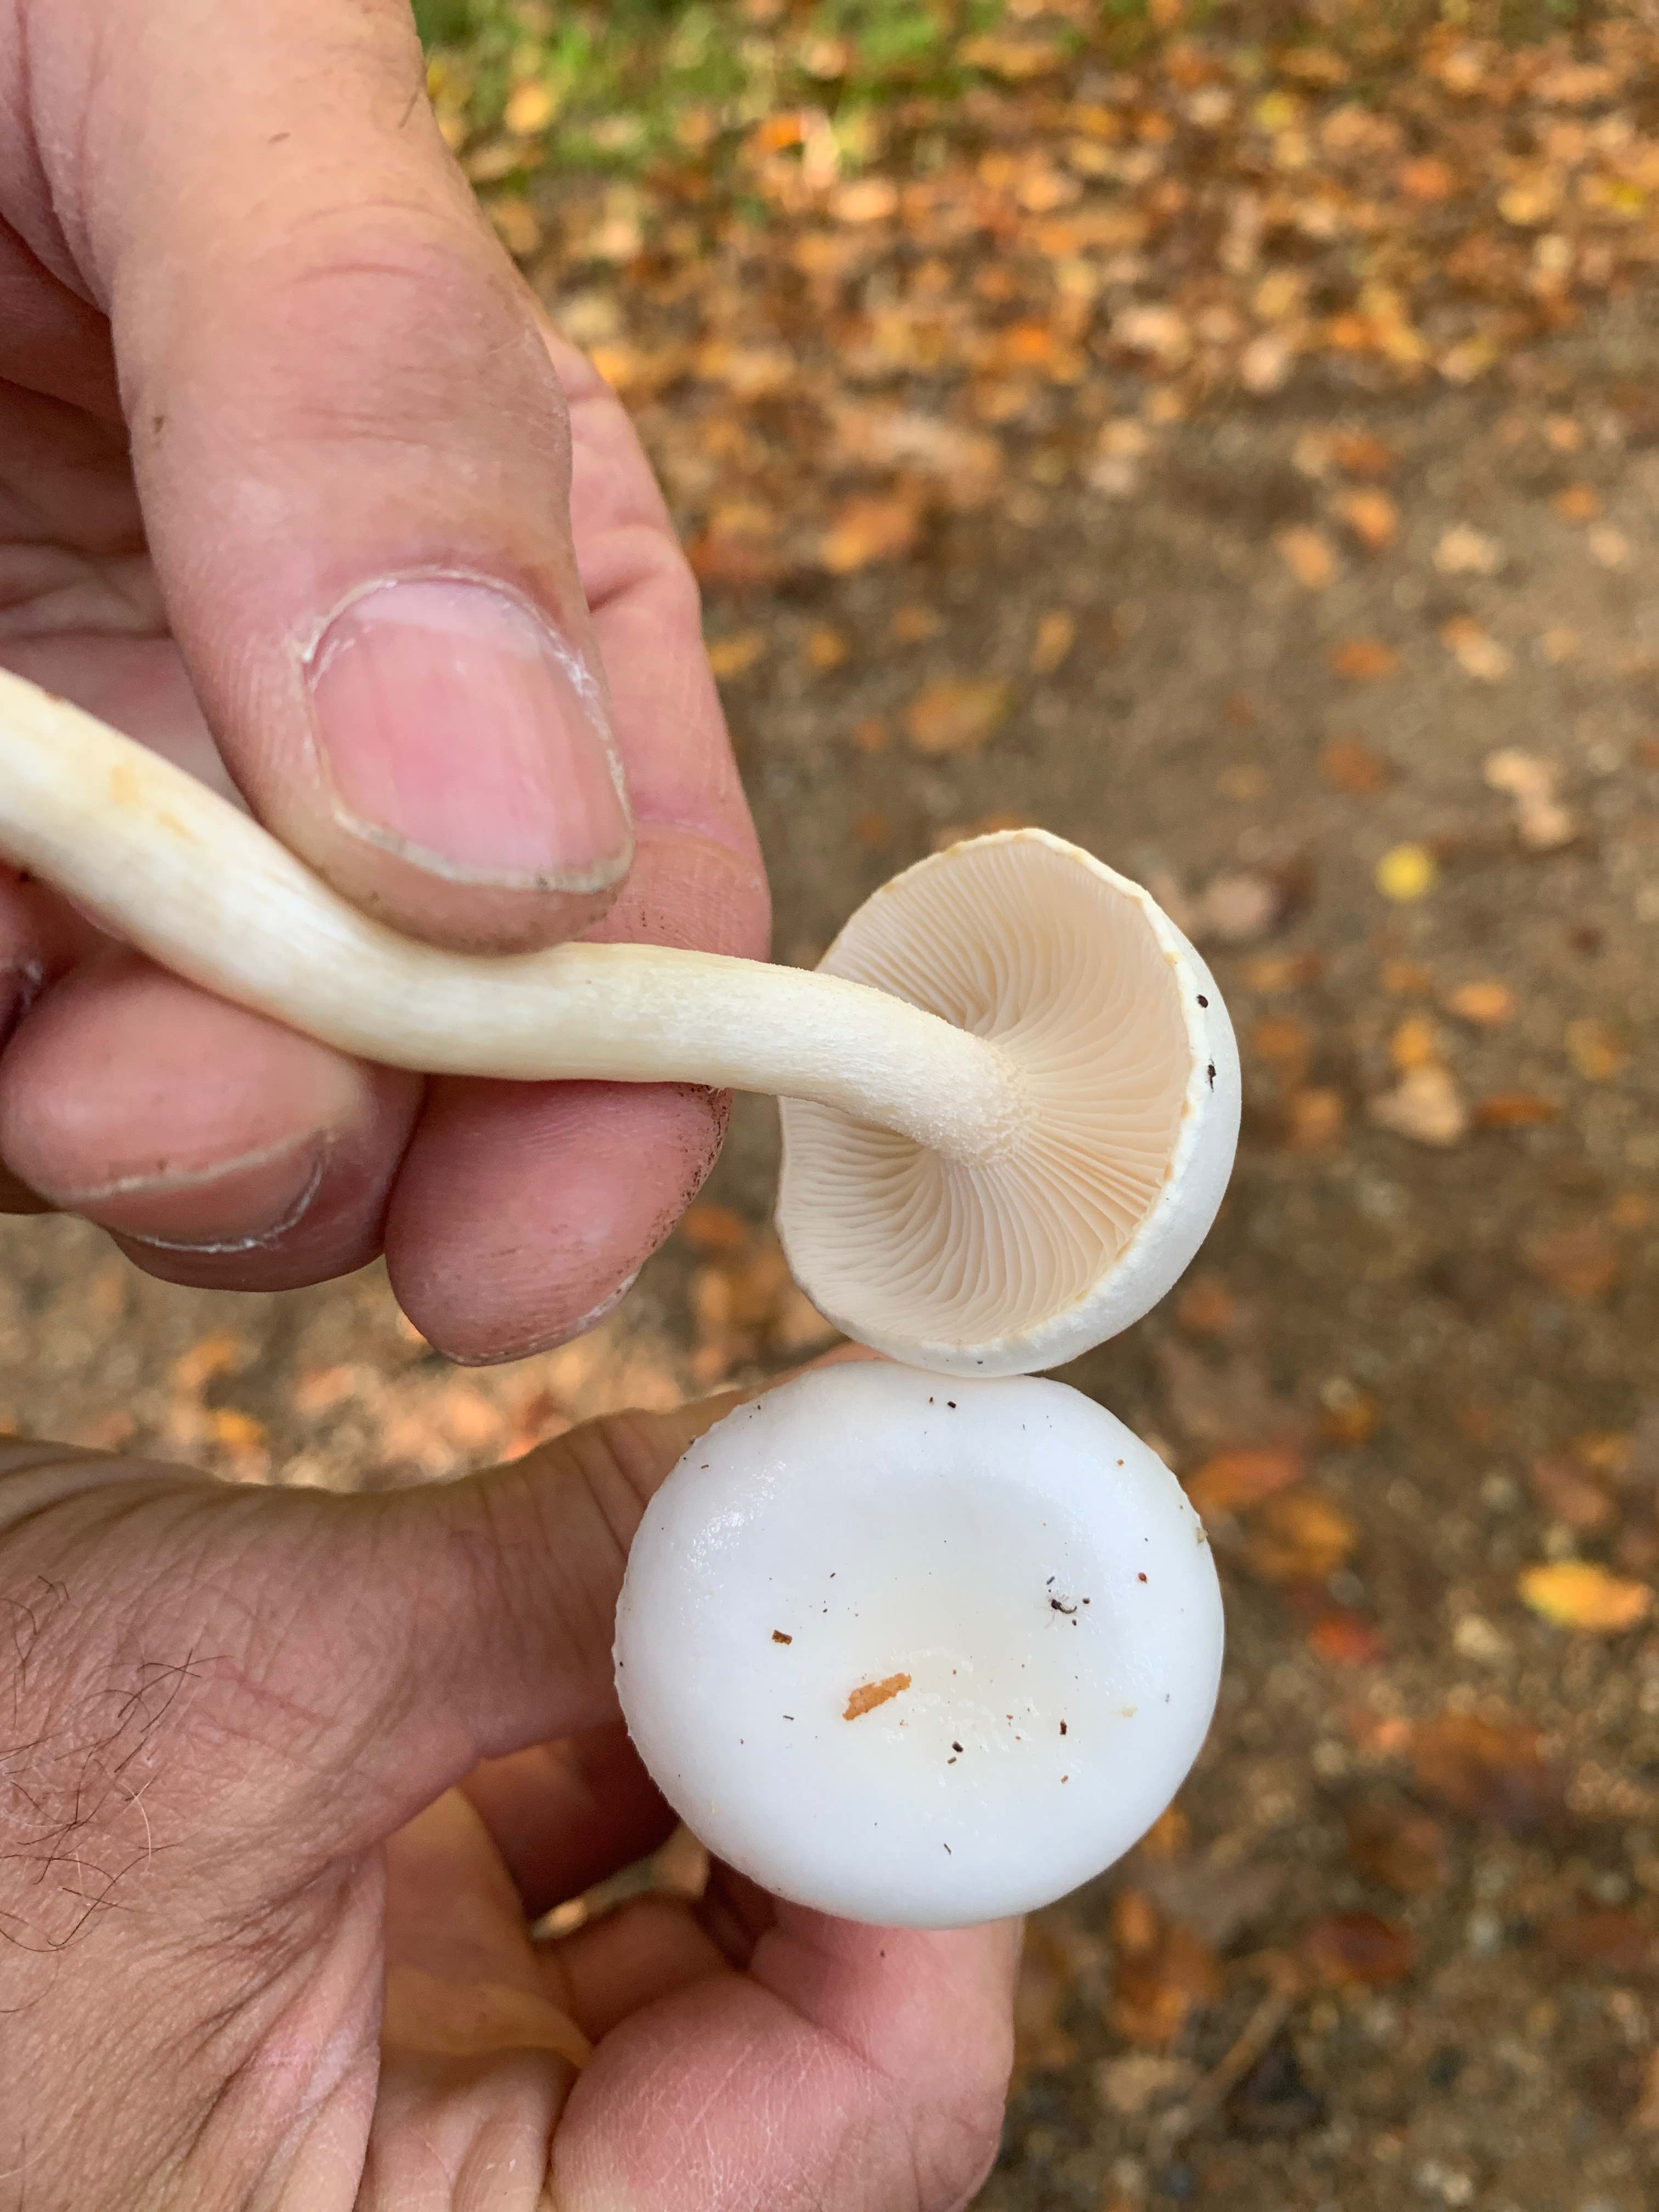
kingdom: Fungi
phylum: Basidiomycota
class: Agaricomycetes
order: Agaricales
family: Hygrophoraceae
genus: Hygrophorus
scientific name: Hygrophorus
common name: sneglehat
